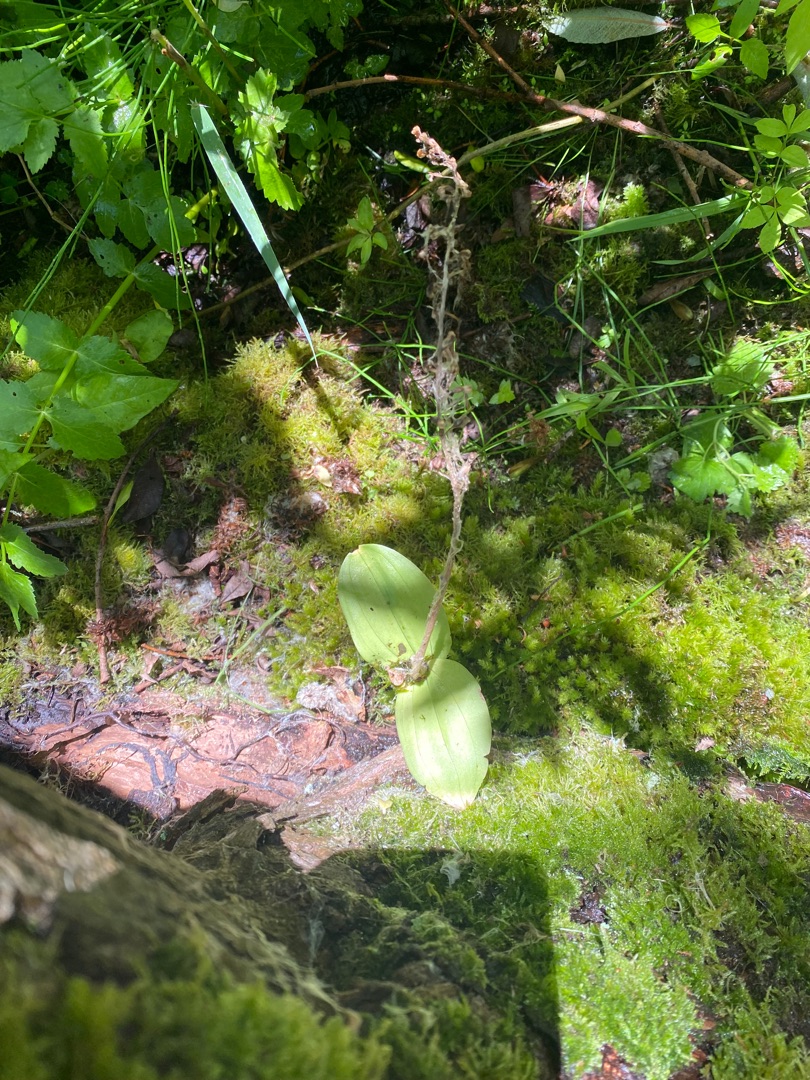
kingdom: Plantae
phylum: Tracheophyta
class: Liliopsida
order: Asparagales
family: Orchidaceae
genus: Neottia
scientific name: Neottia ovata
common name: Ægbladet fliglæbe
